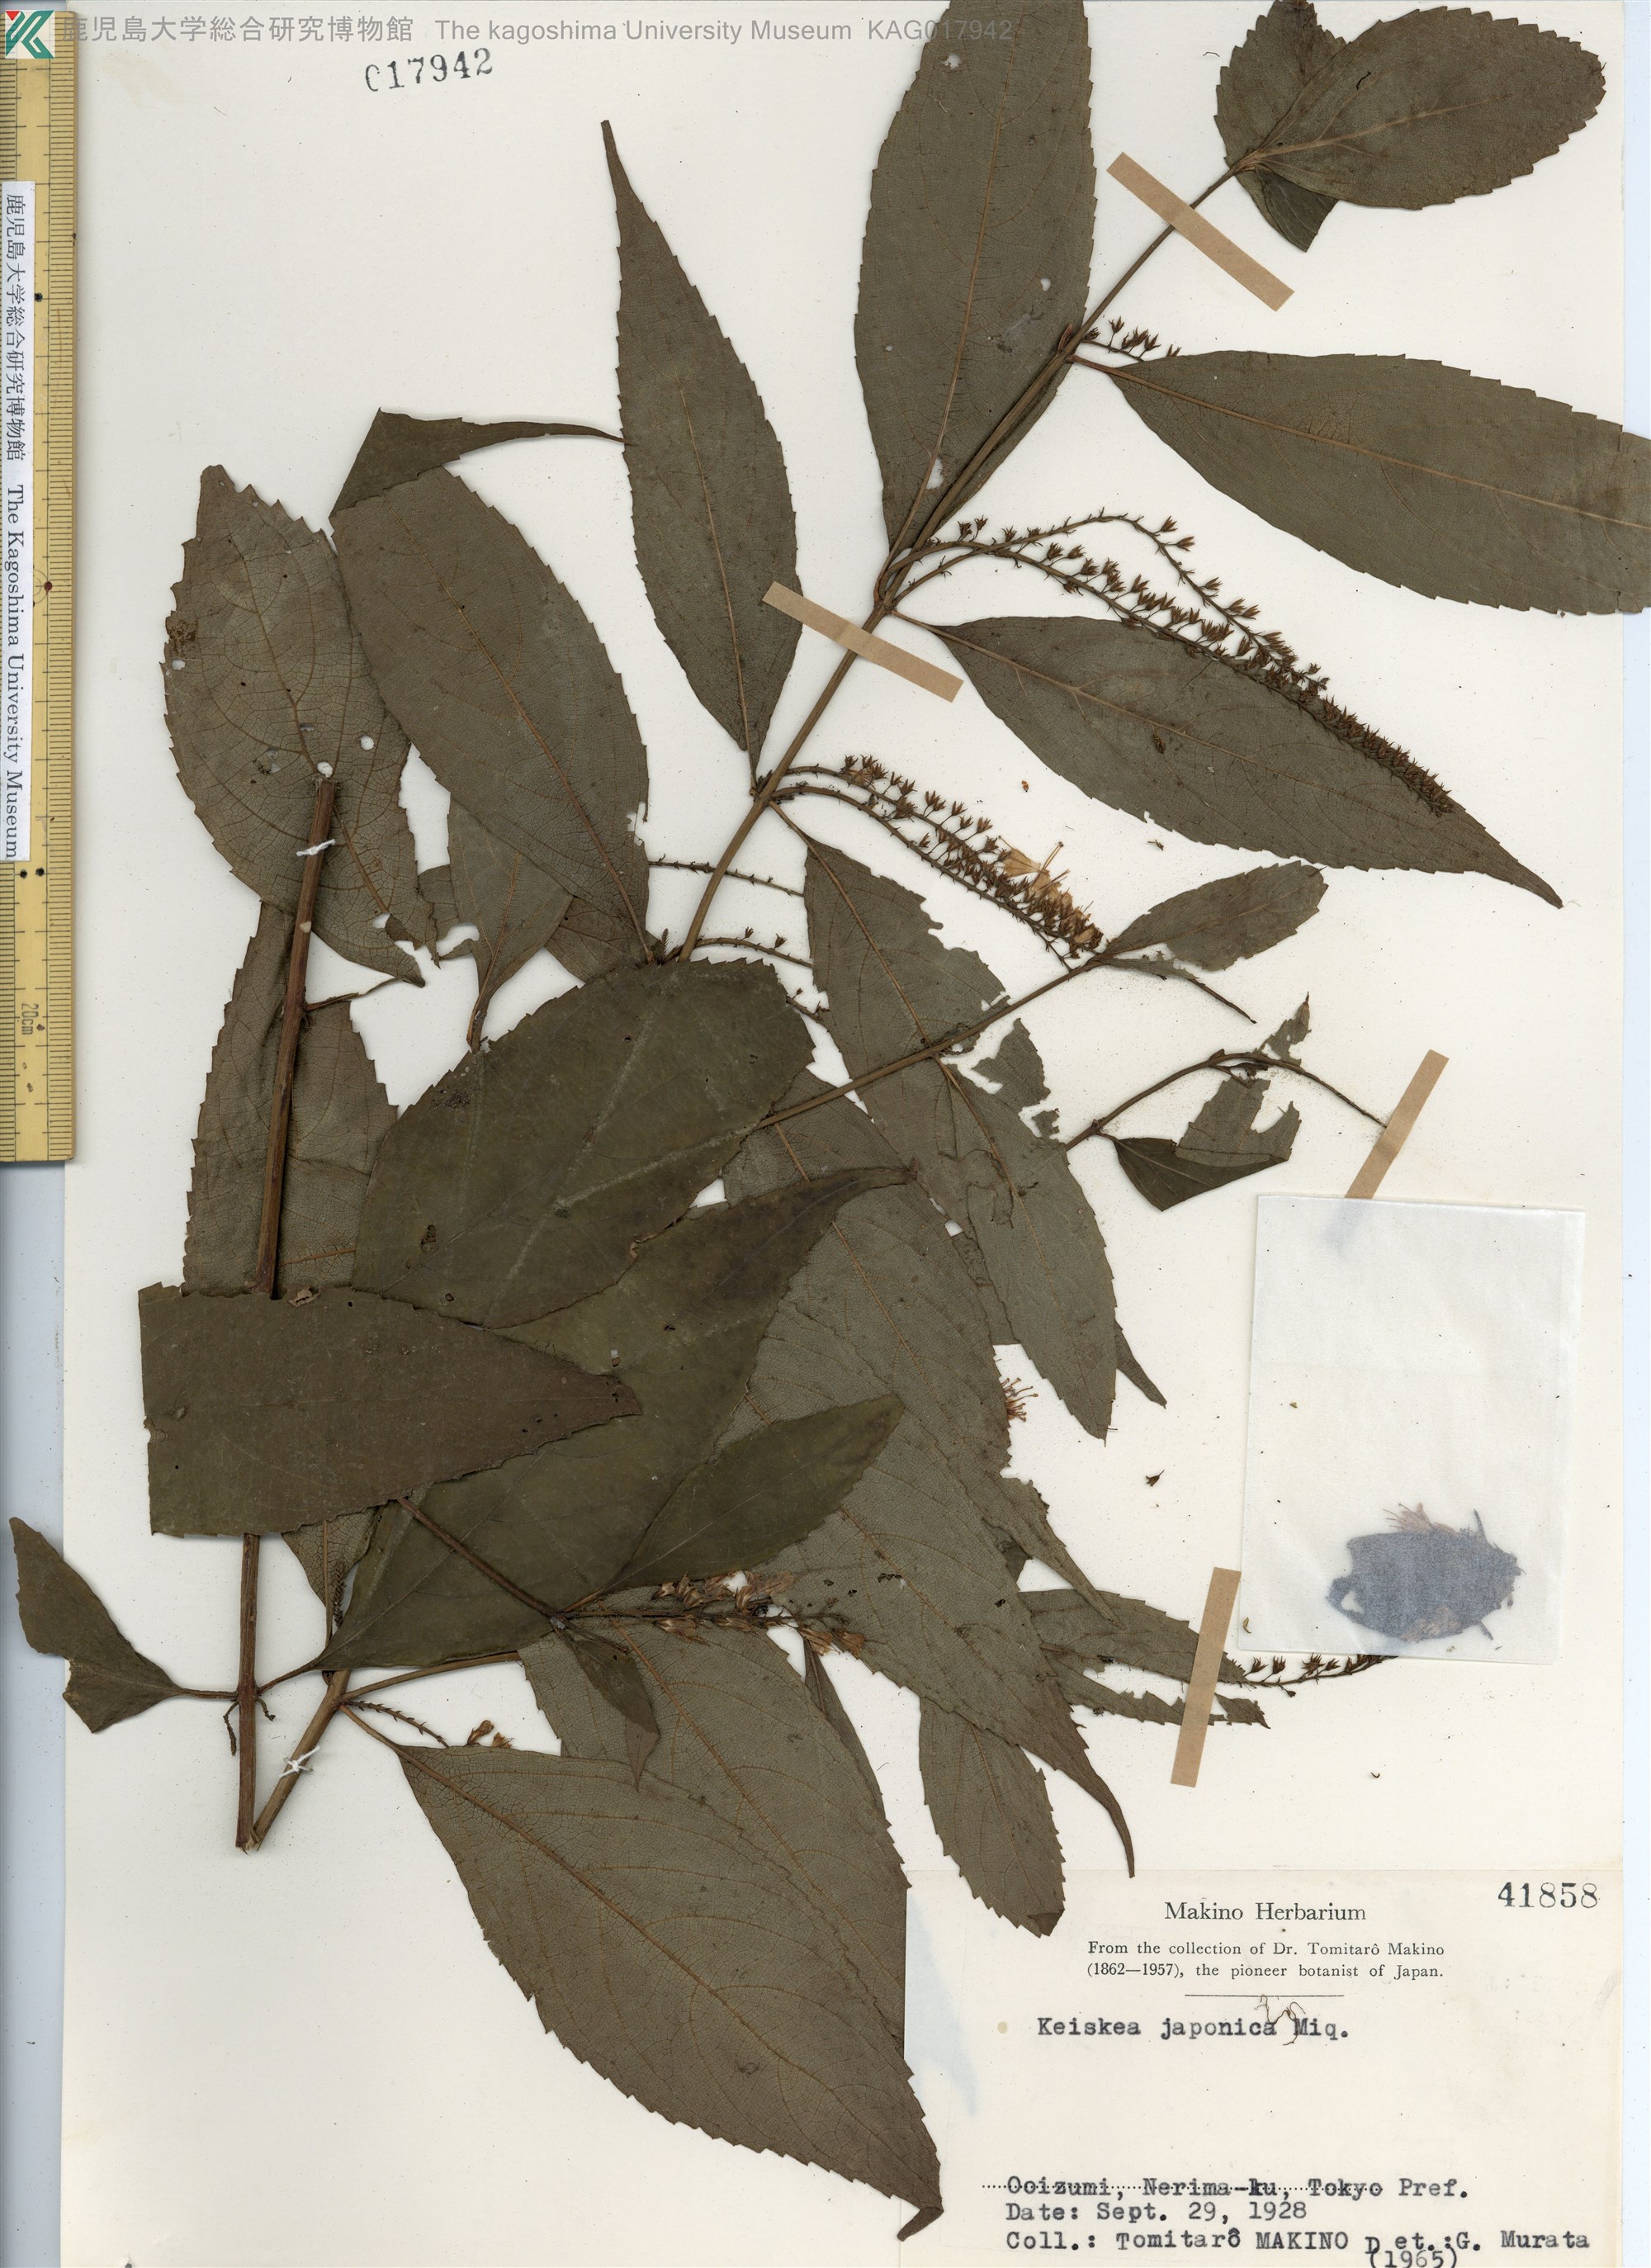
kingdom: Plantae
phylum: Tracheophyta
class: Magnoliopsida
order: Lamiales
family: Lamiaceae
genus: Collinsonia
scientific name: Collinsonia japonica
